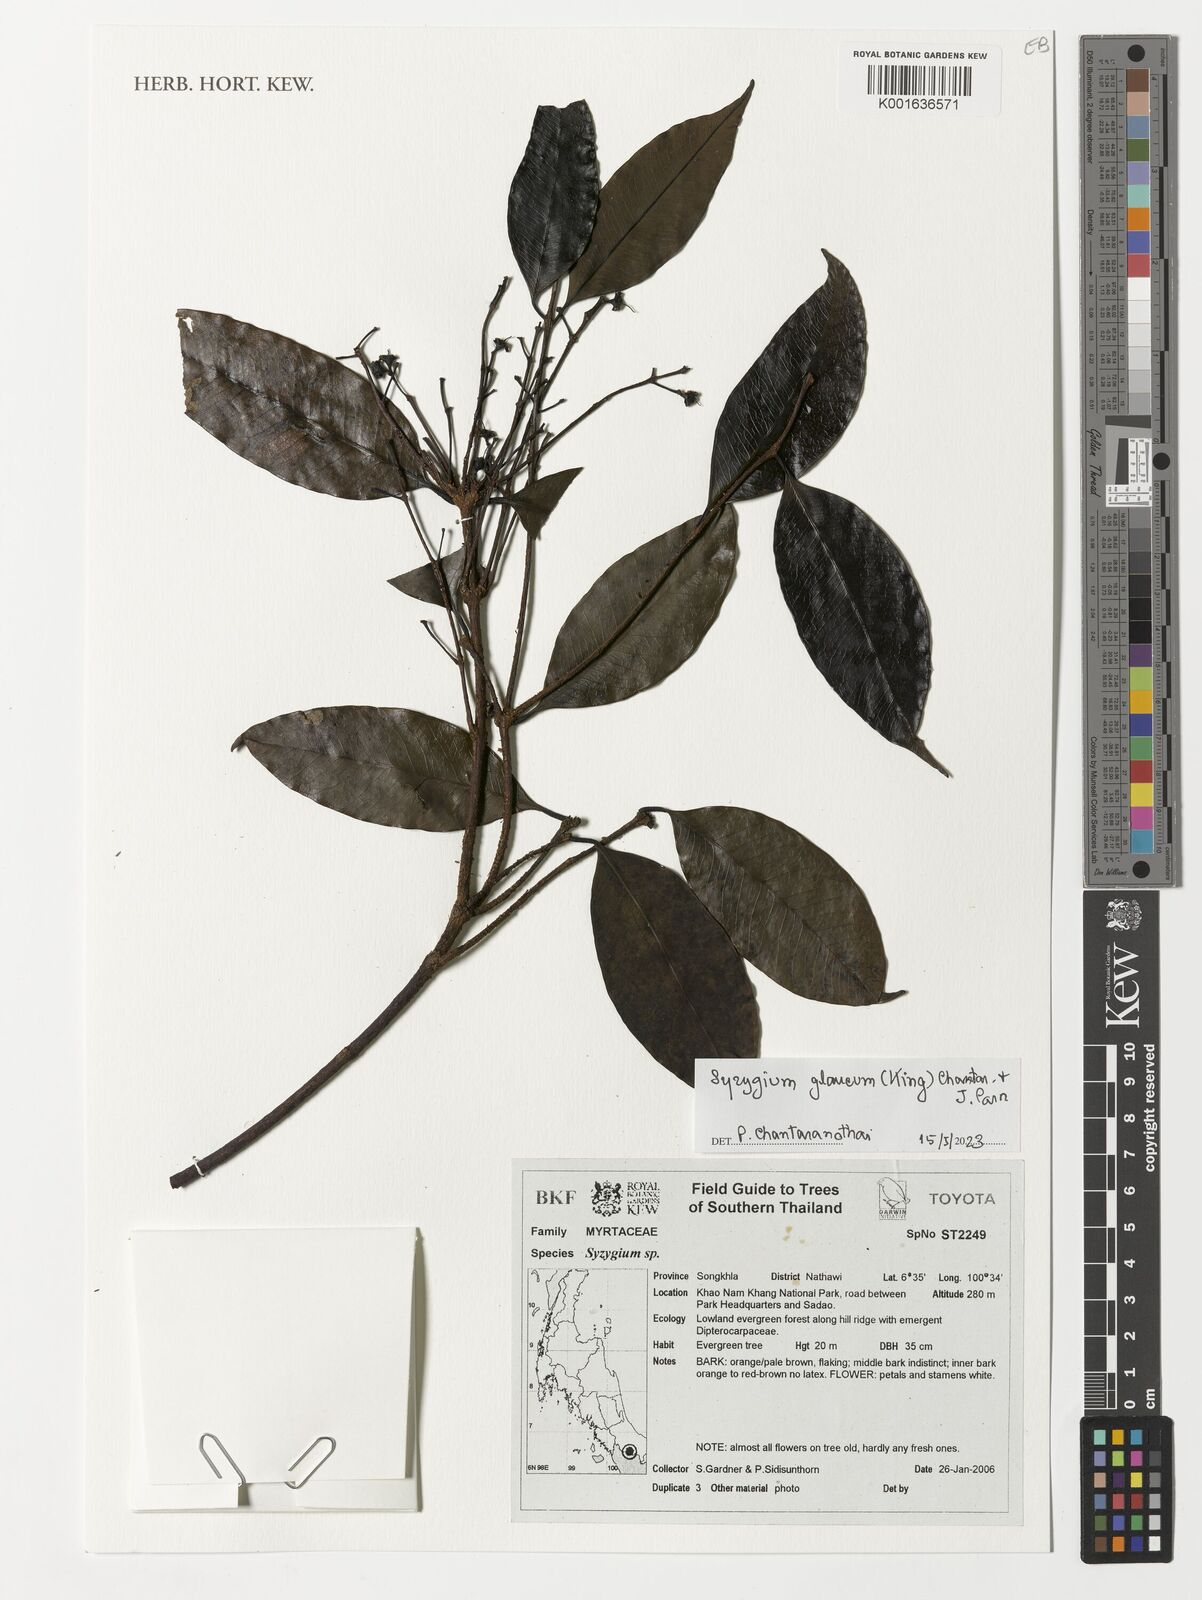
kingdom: Plantae
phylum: Tracheophyta
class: Magnoliopsida
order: Myrtales
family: Myrtaceae
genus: Syzygium
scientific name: Syzygium glaucum
